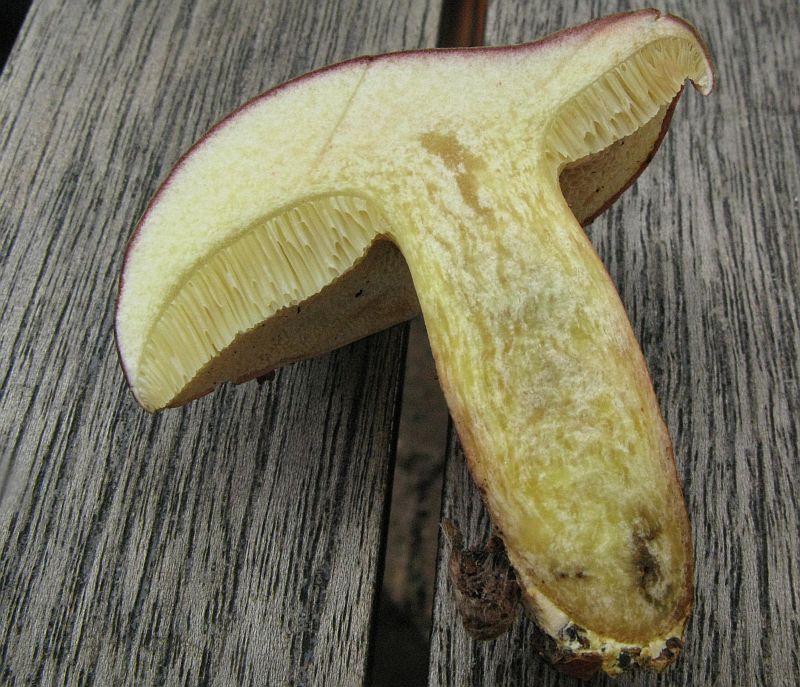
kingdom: Fungi
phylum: Basidiomycota
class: Agaricomycetes
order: Boletales
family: Boletaceae
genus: Xerocomellus
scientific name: Xerocomellus pruinatus
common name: dugget rørhat
